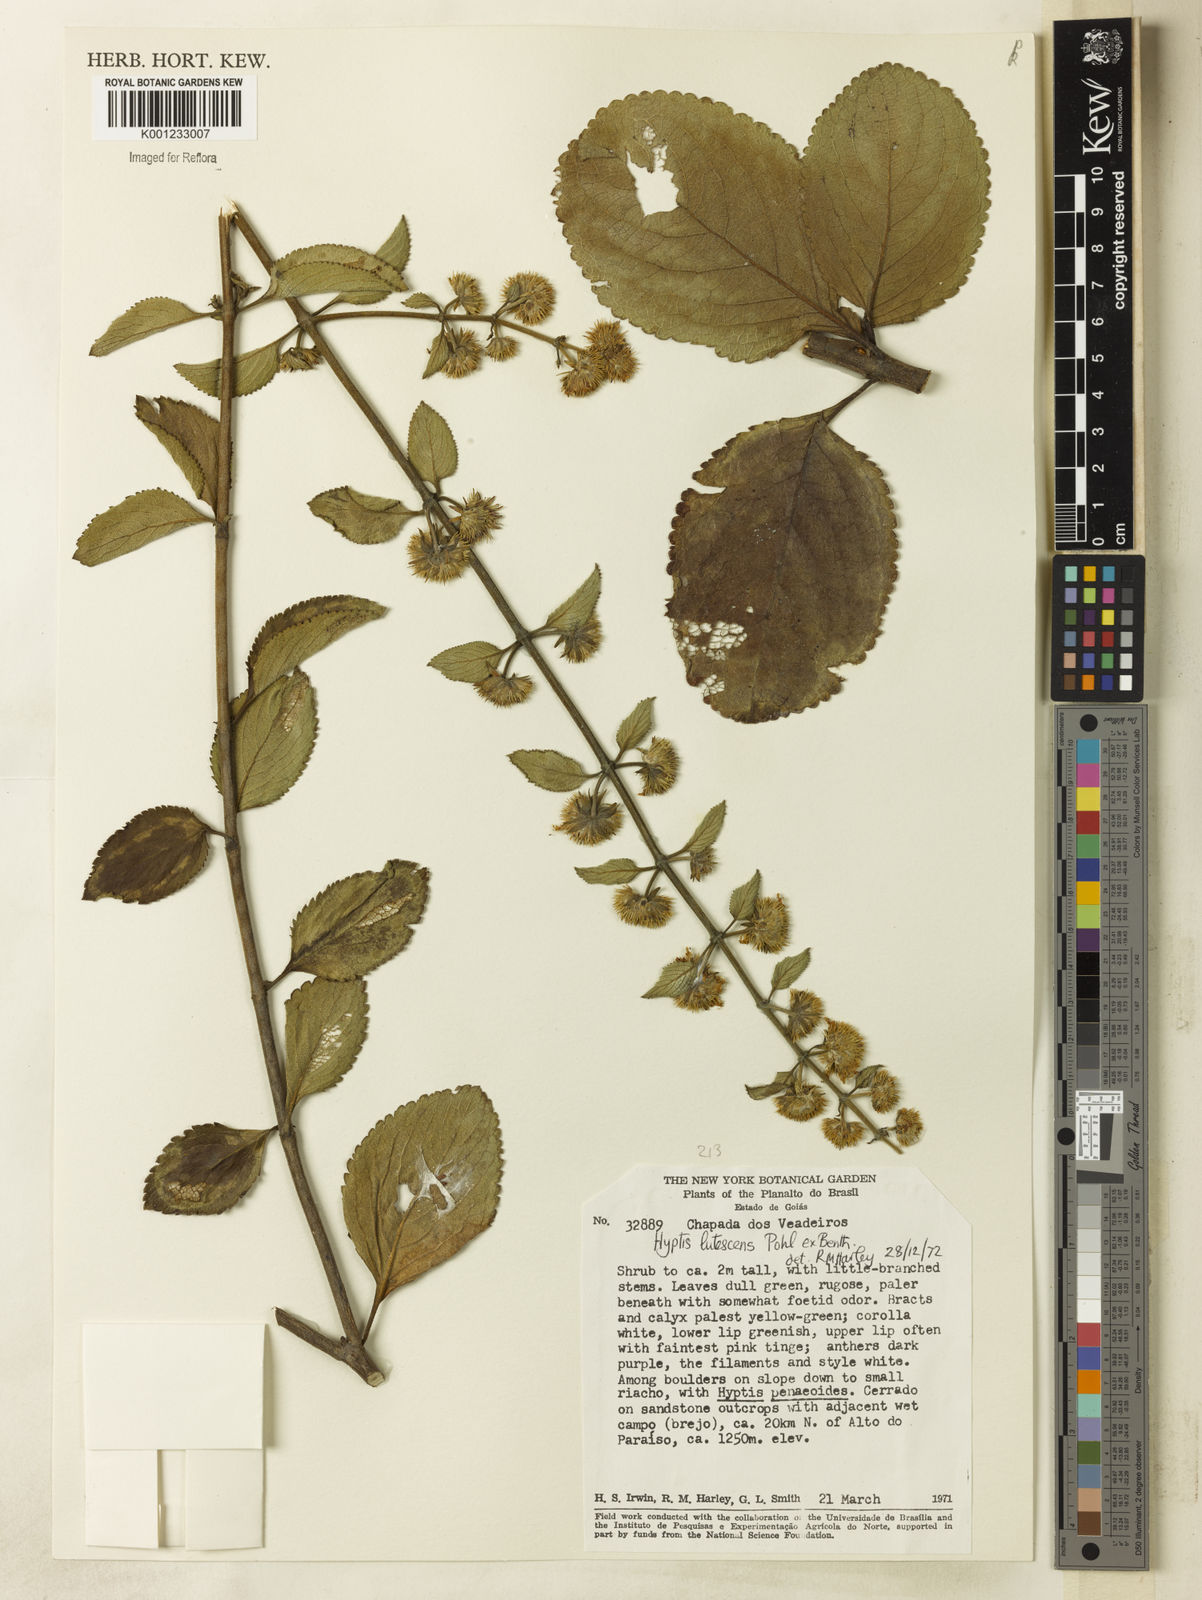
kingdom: Plantae
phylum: Tracheophyta
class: Magnoliopsida
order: Lamiales
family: Lamiaceae
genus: Hyptis
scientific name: Hyptis lutescens
